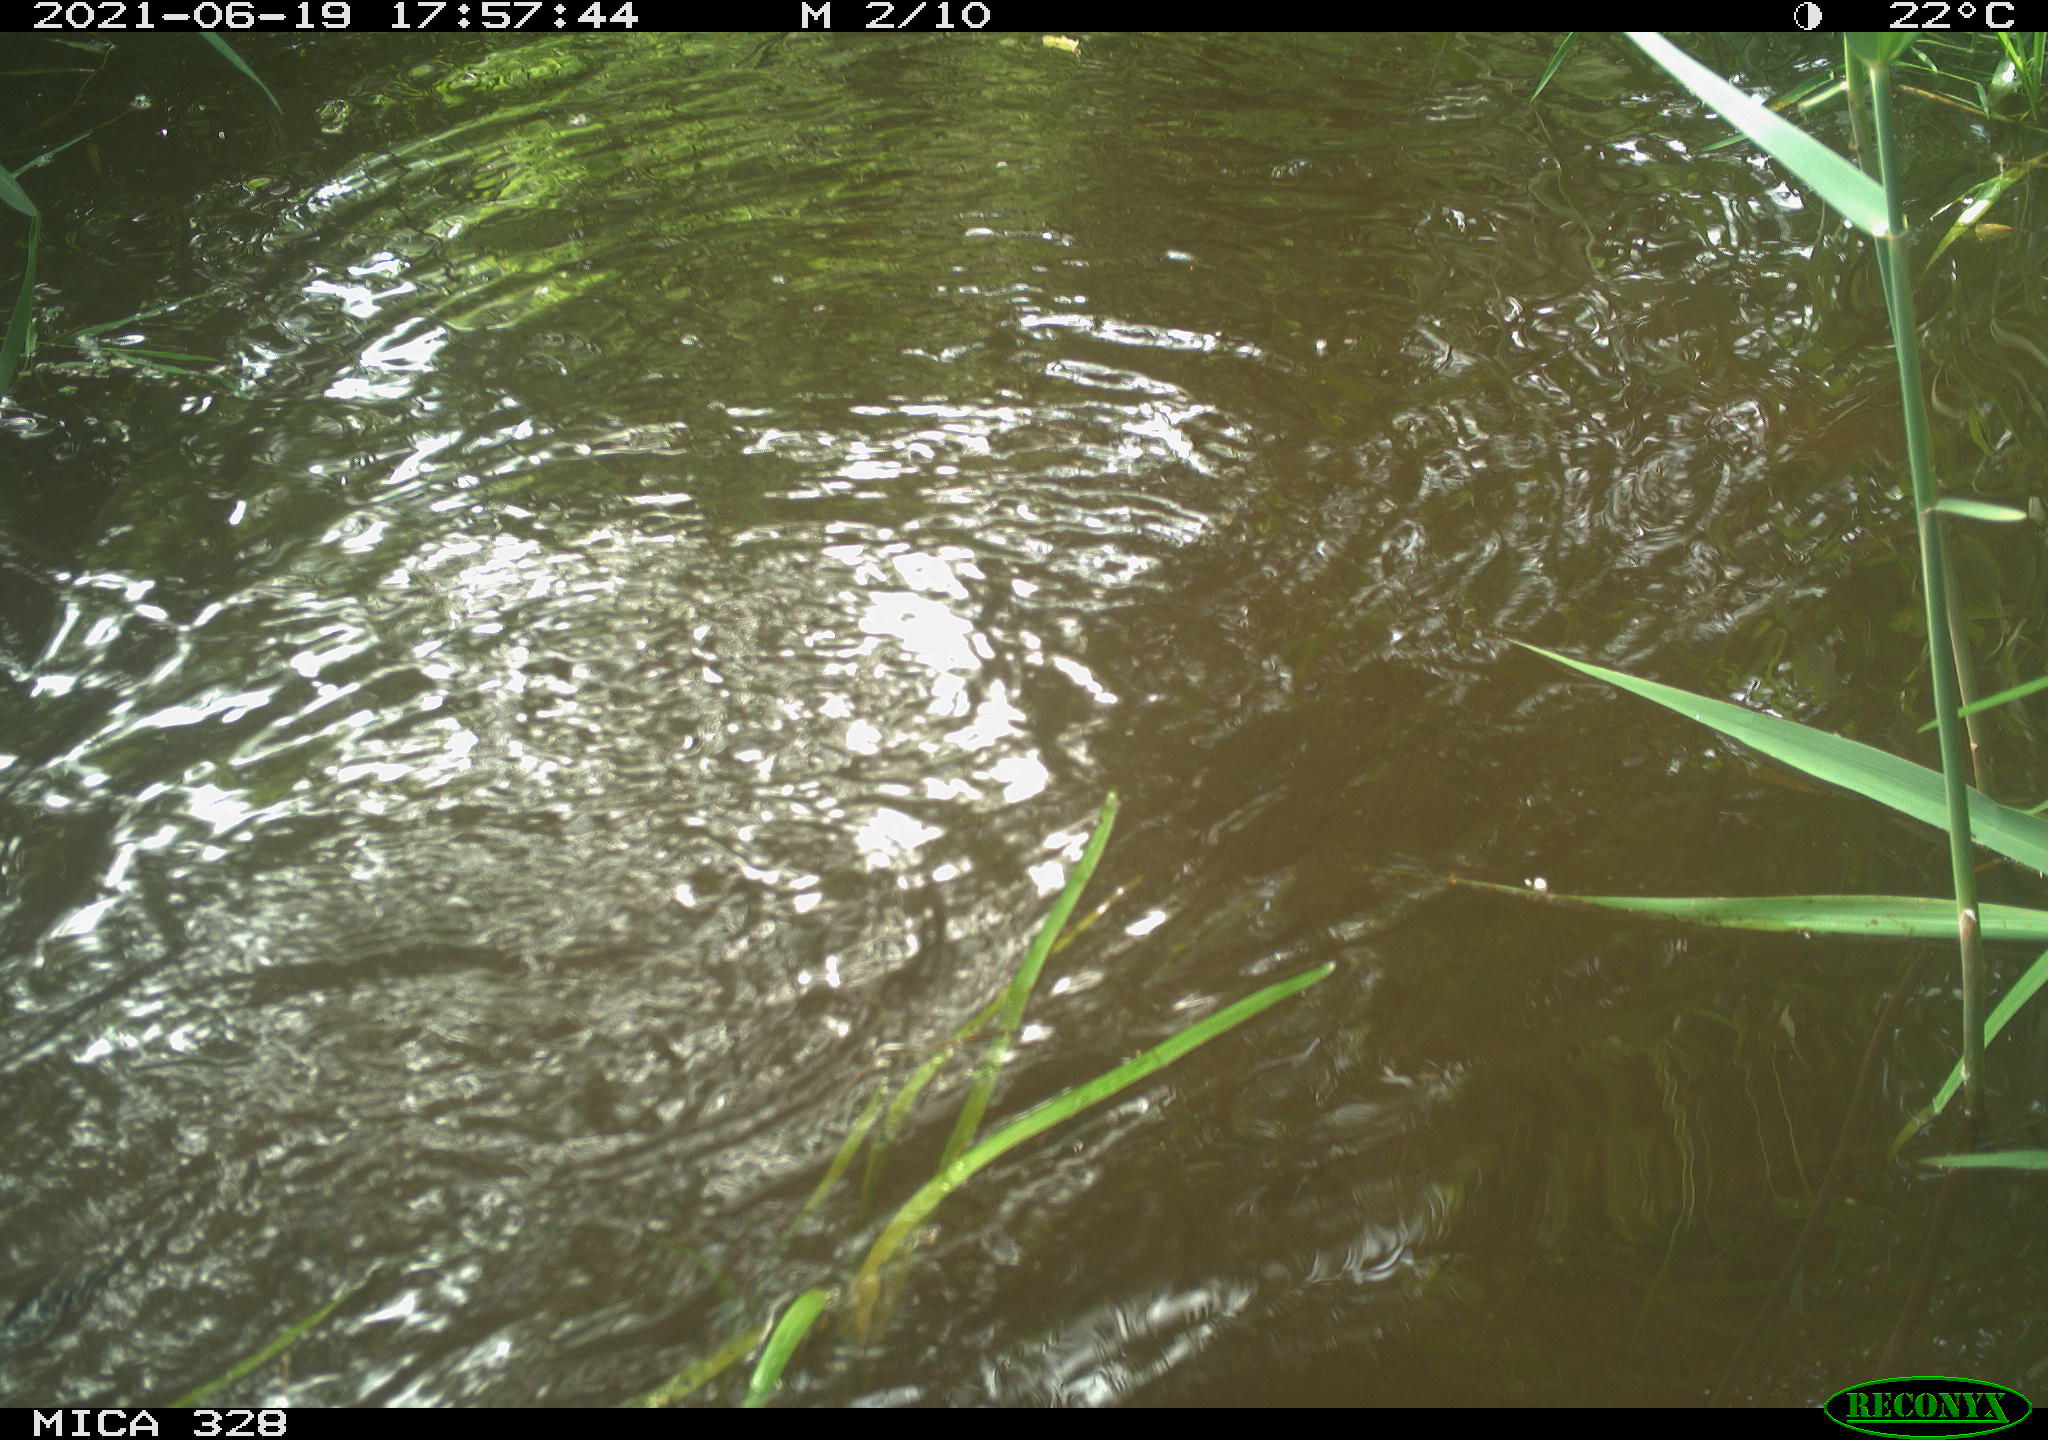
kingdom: Animalia
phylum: Chordata
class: Aves
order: Anseriformes
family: Anatidae
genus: Aix
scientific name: Aix galericulata
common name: Mandarin duck
